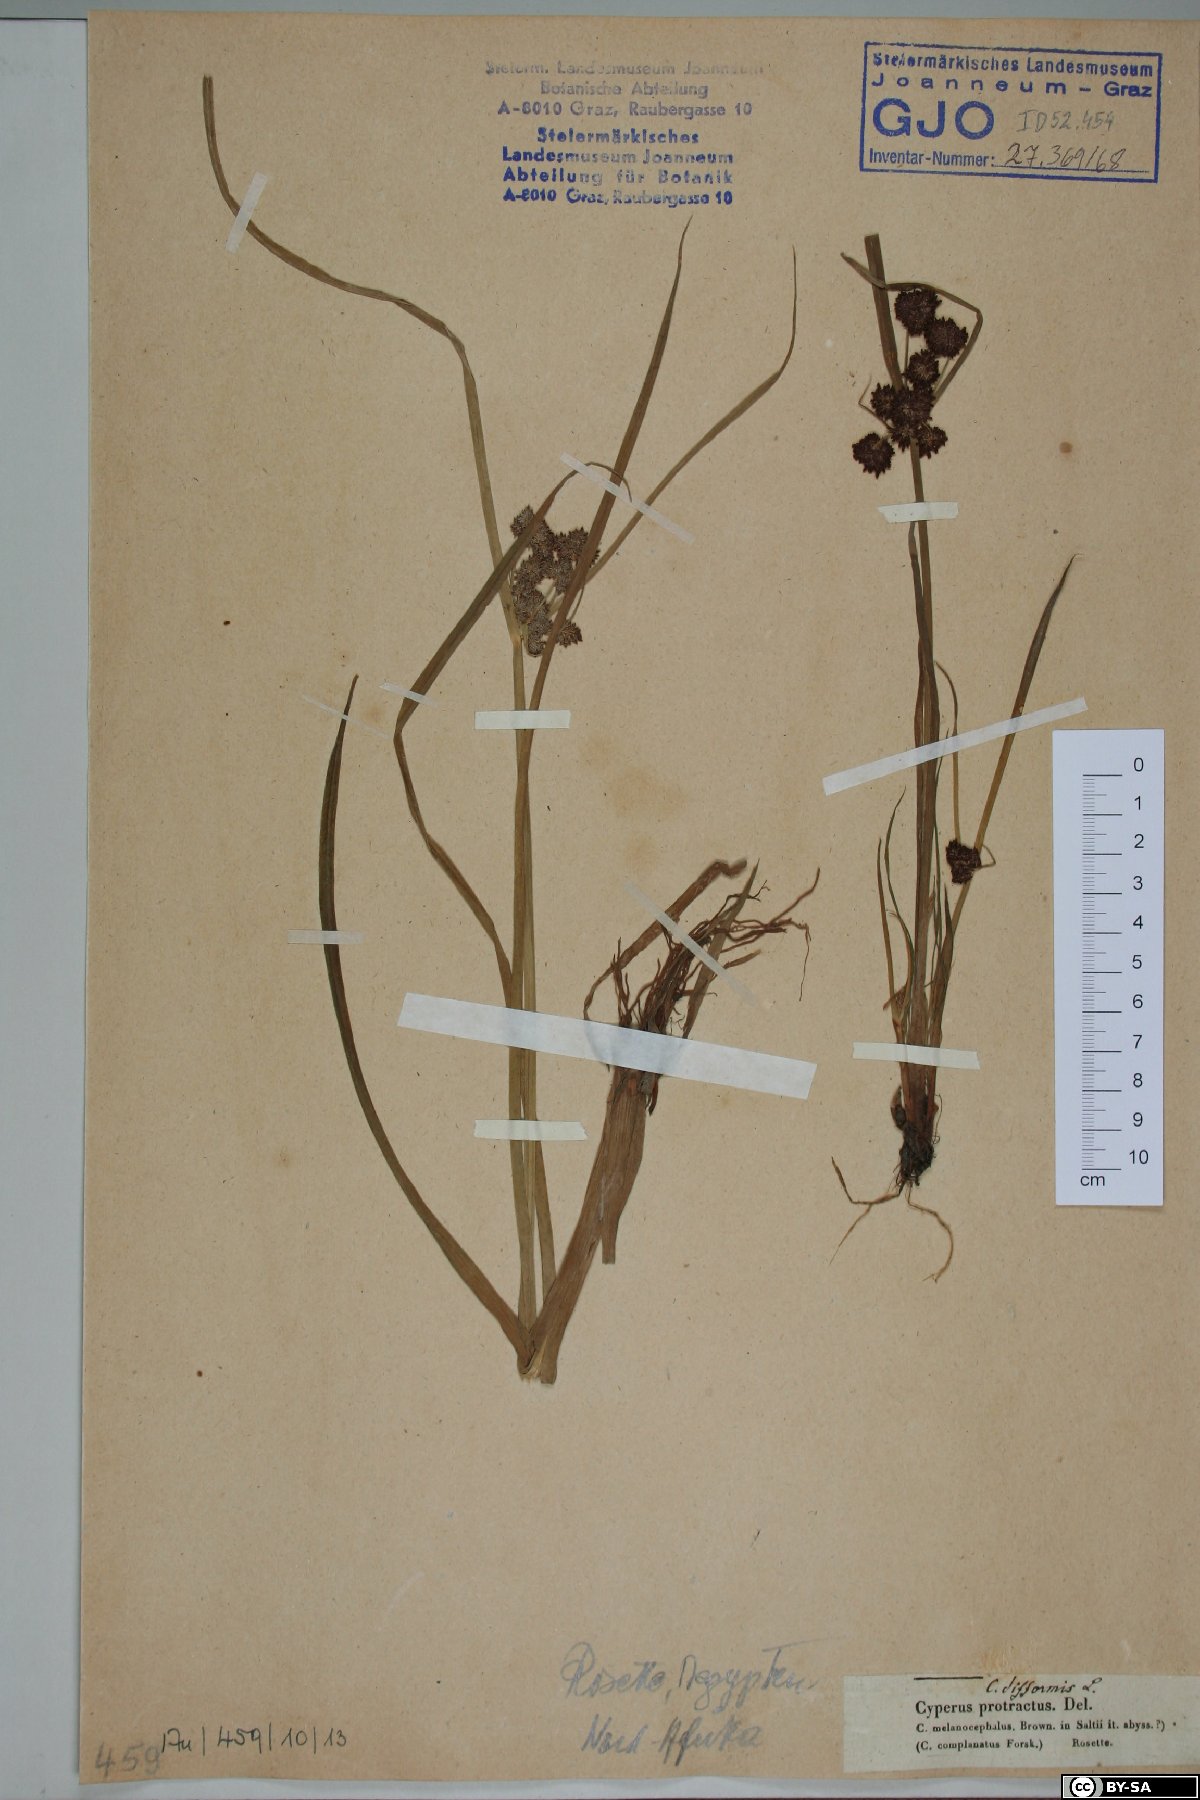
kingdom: Plantae
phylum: Tracheophyta
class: Liliopsida
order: Poales
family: Cyperaceae
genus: Cyperus
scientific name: Cyperus protractus
